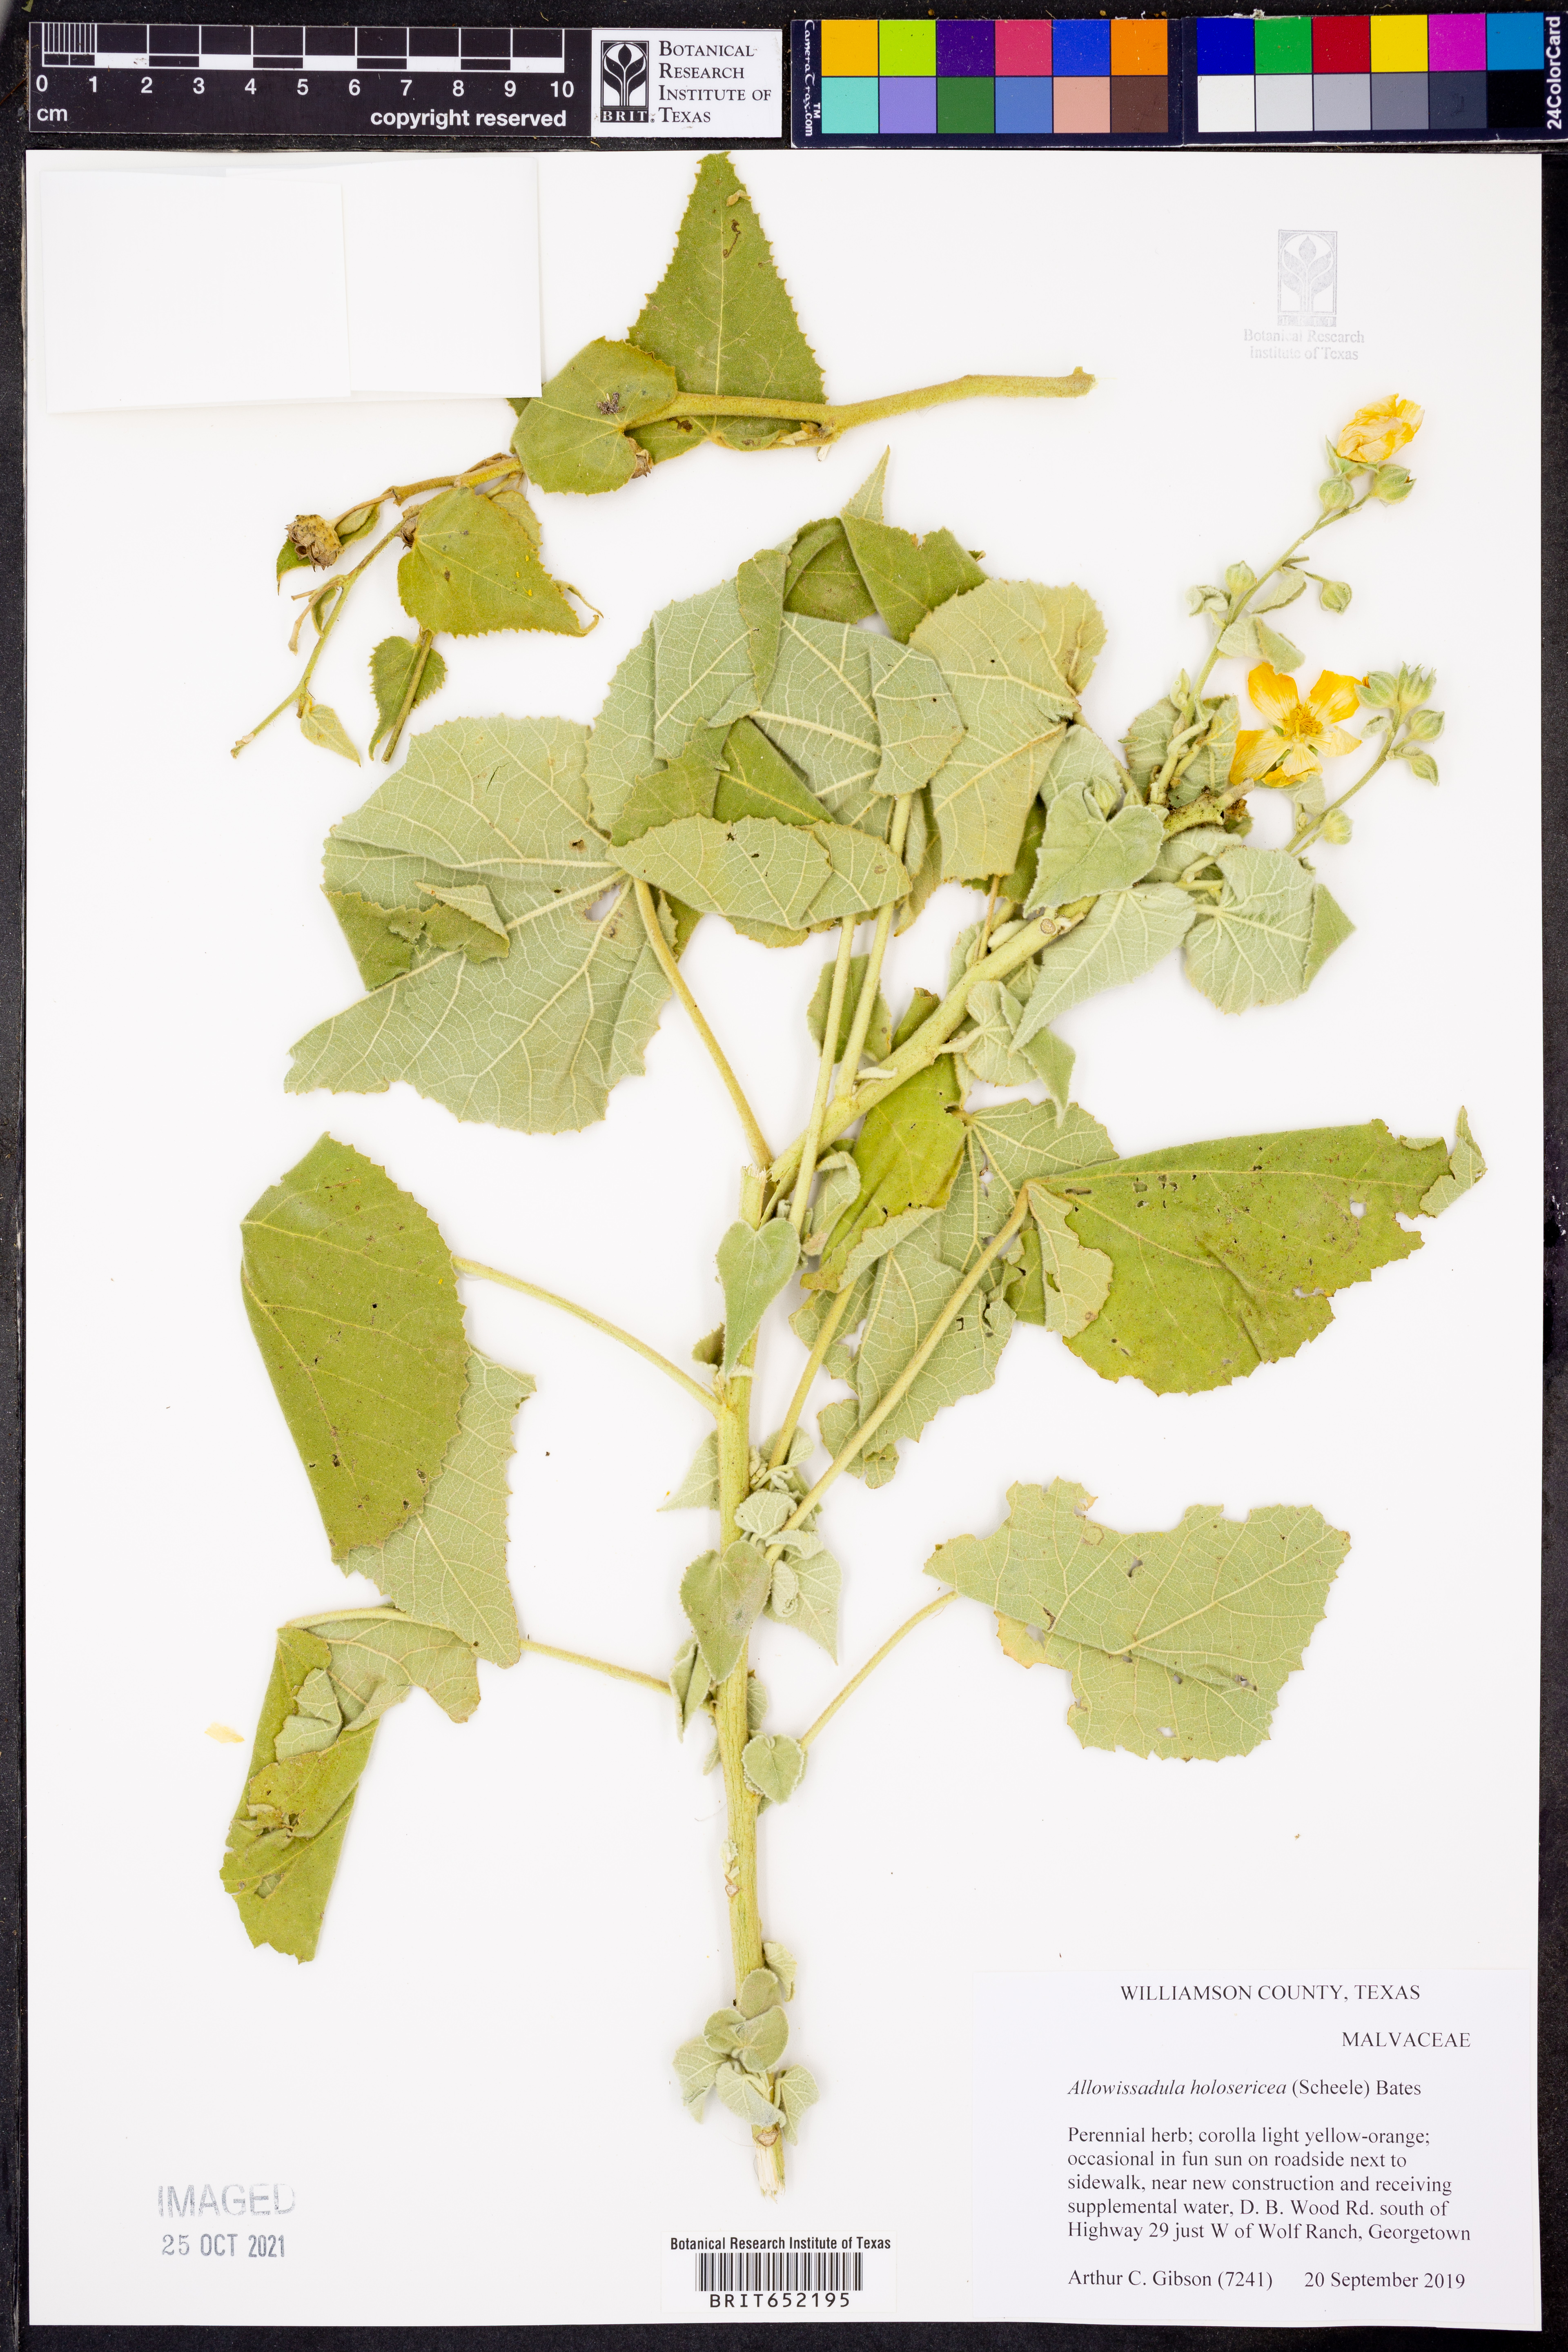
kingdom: Plantae
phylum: Tracheophyta
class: Magnoliopsida
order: Malvales
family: Malvaceae
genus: Allowissadula
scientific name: Allowissadula holosericea
